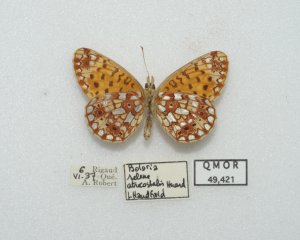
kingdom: Animalia
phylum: Arthropoda
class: Insecta
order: Lepidoptera
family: Nymphalidae
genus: Boloria
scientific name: Boloria selene
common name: Silver-bordered Fritillary
